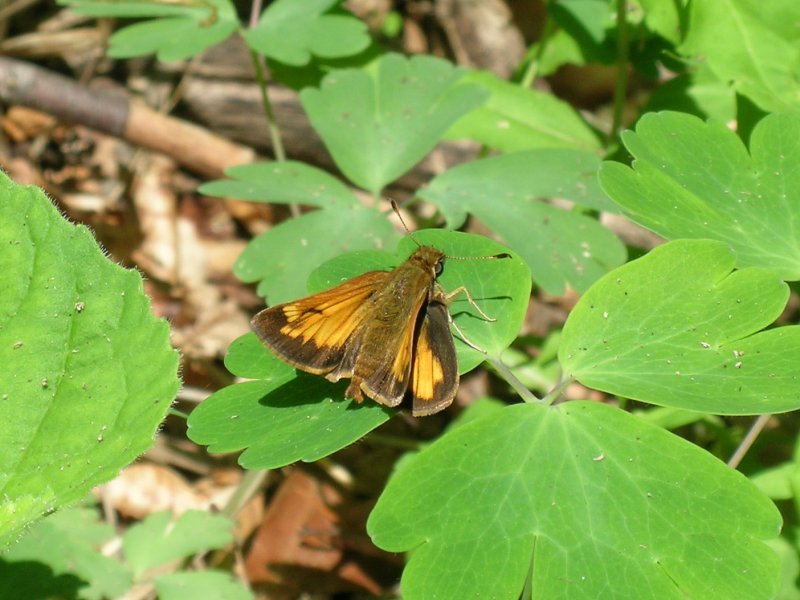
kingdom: Animalia
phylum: Arthropoda
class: Insecta
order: Lepidoptera
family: Hesperiidae
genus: Lon
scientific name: Lon hobomok
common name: Hobomok Skipper
